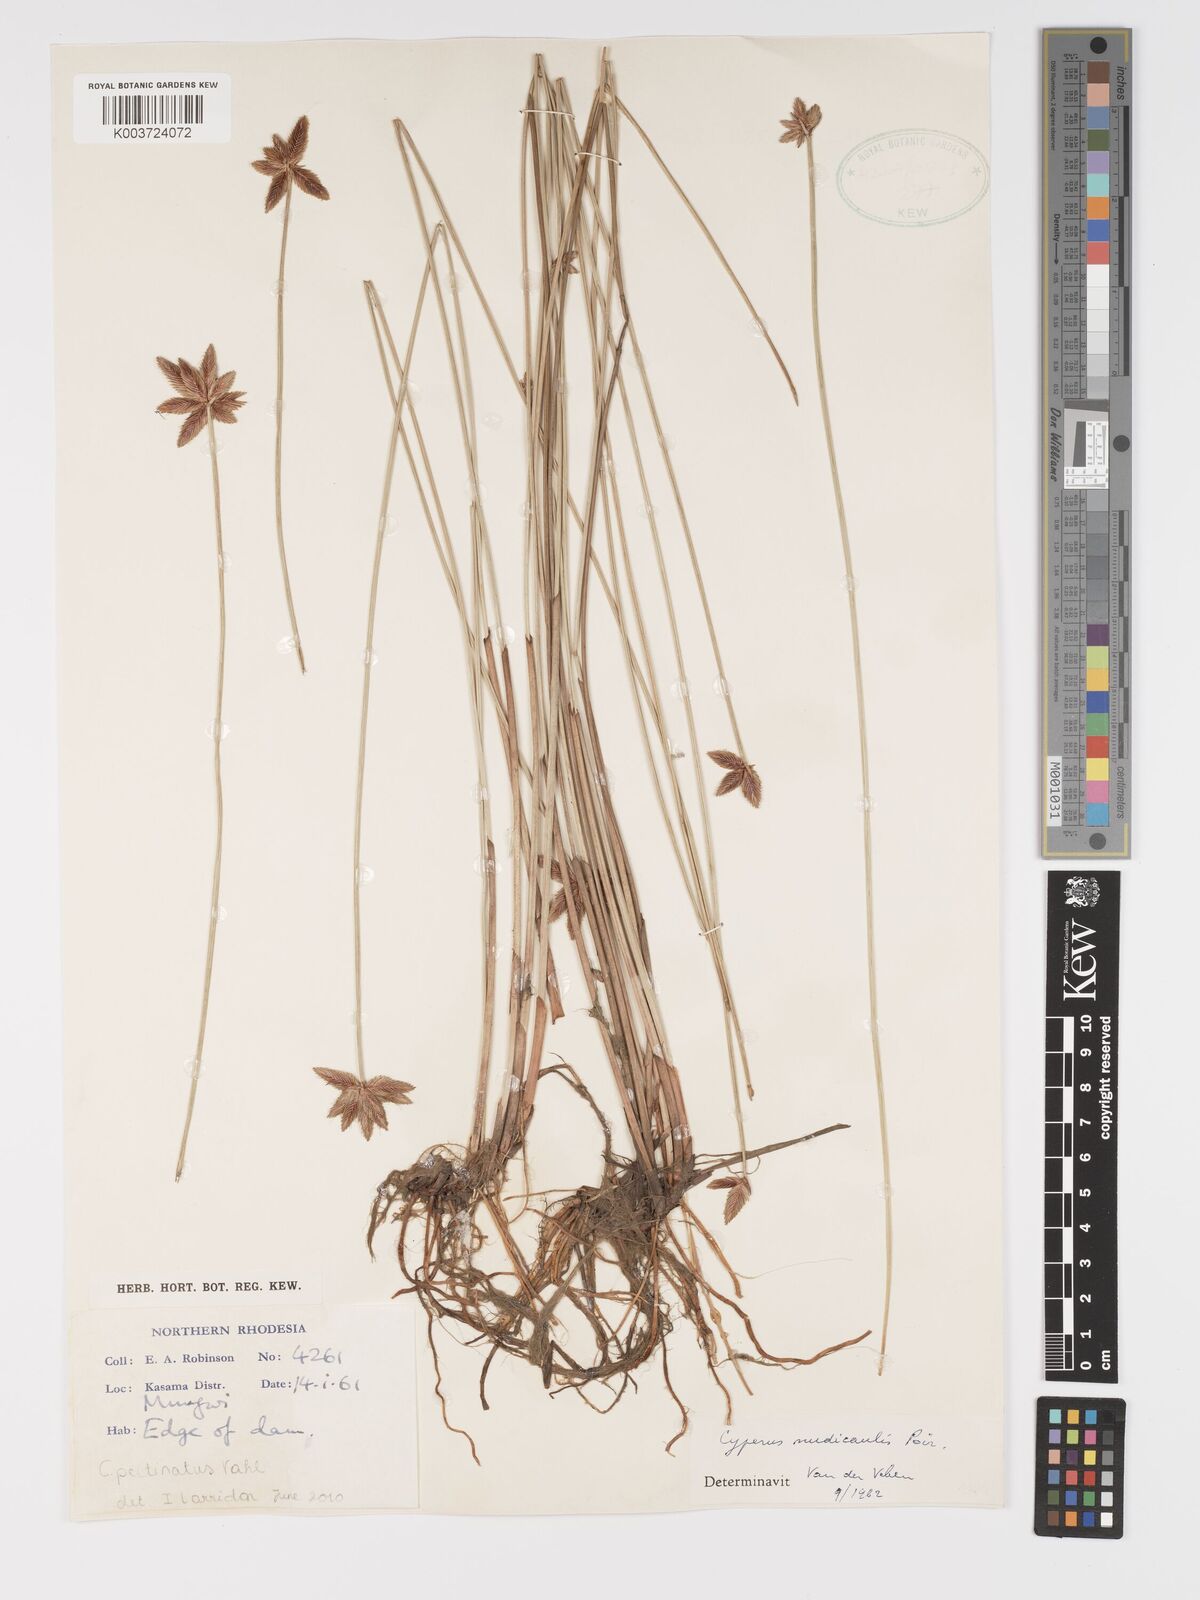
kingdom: Plantae
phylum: Tracheophyta
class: Liliopsida
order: Poales
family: Cyperaceae
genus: Cyperus
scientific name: Cyperus compressus
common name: Poorland flatsedge
